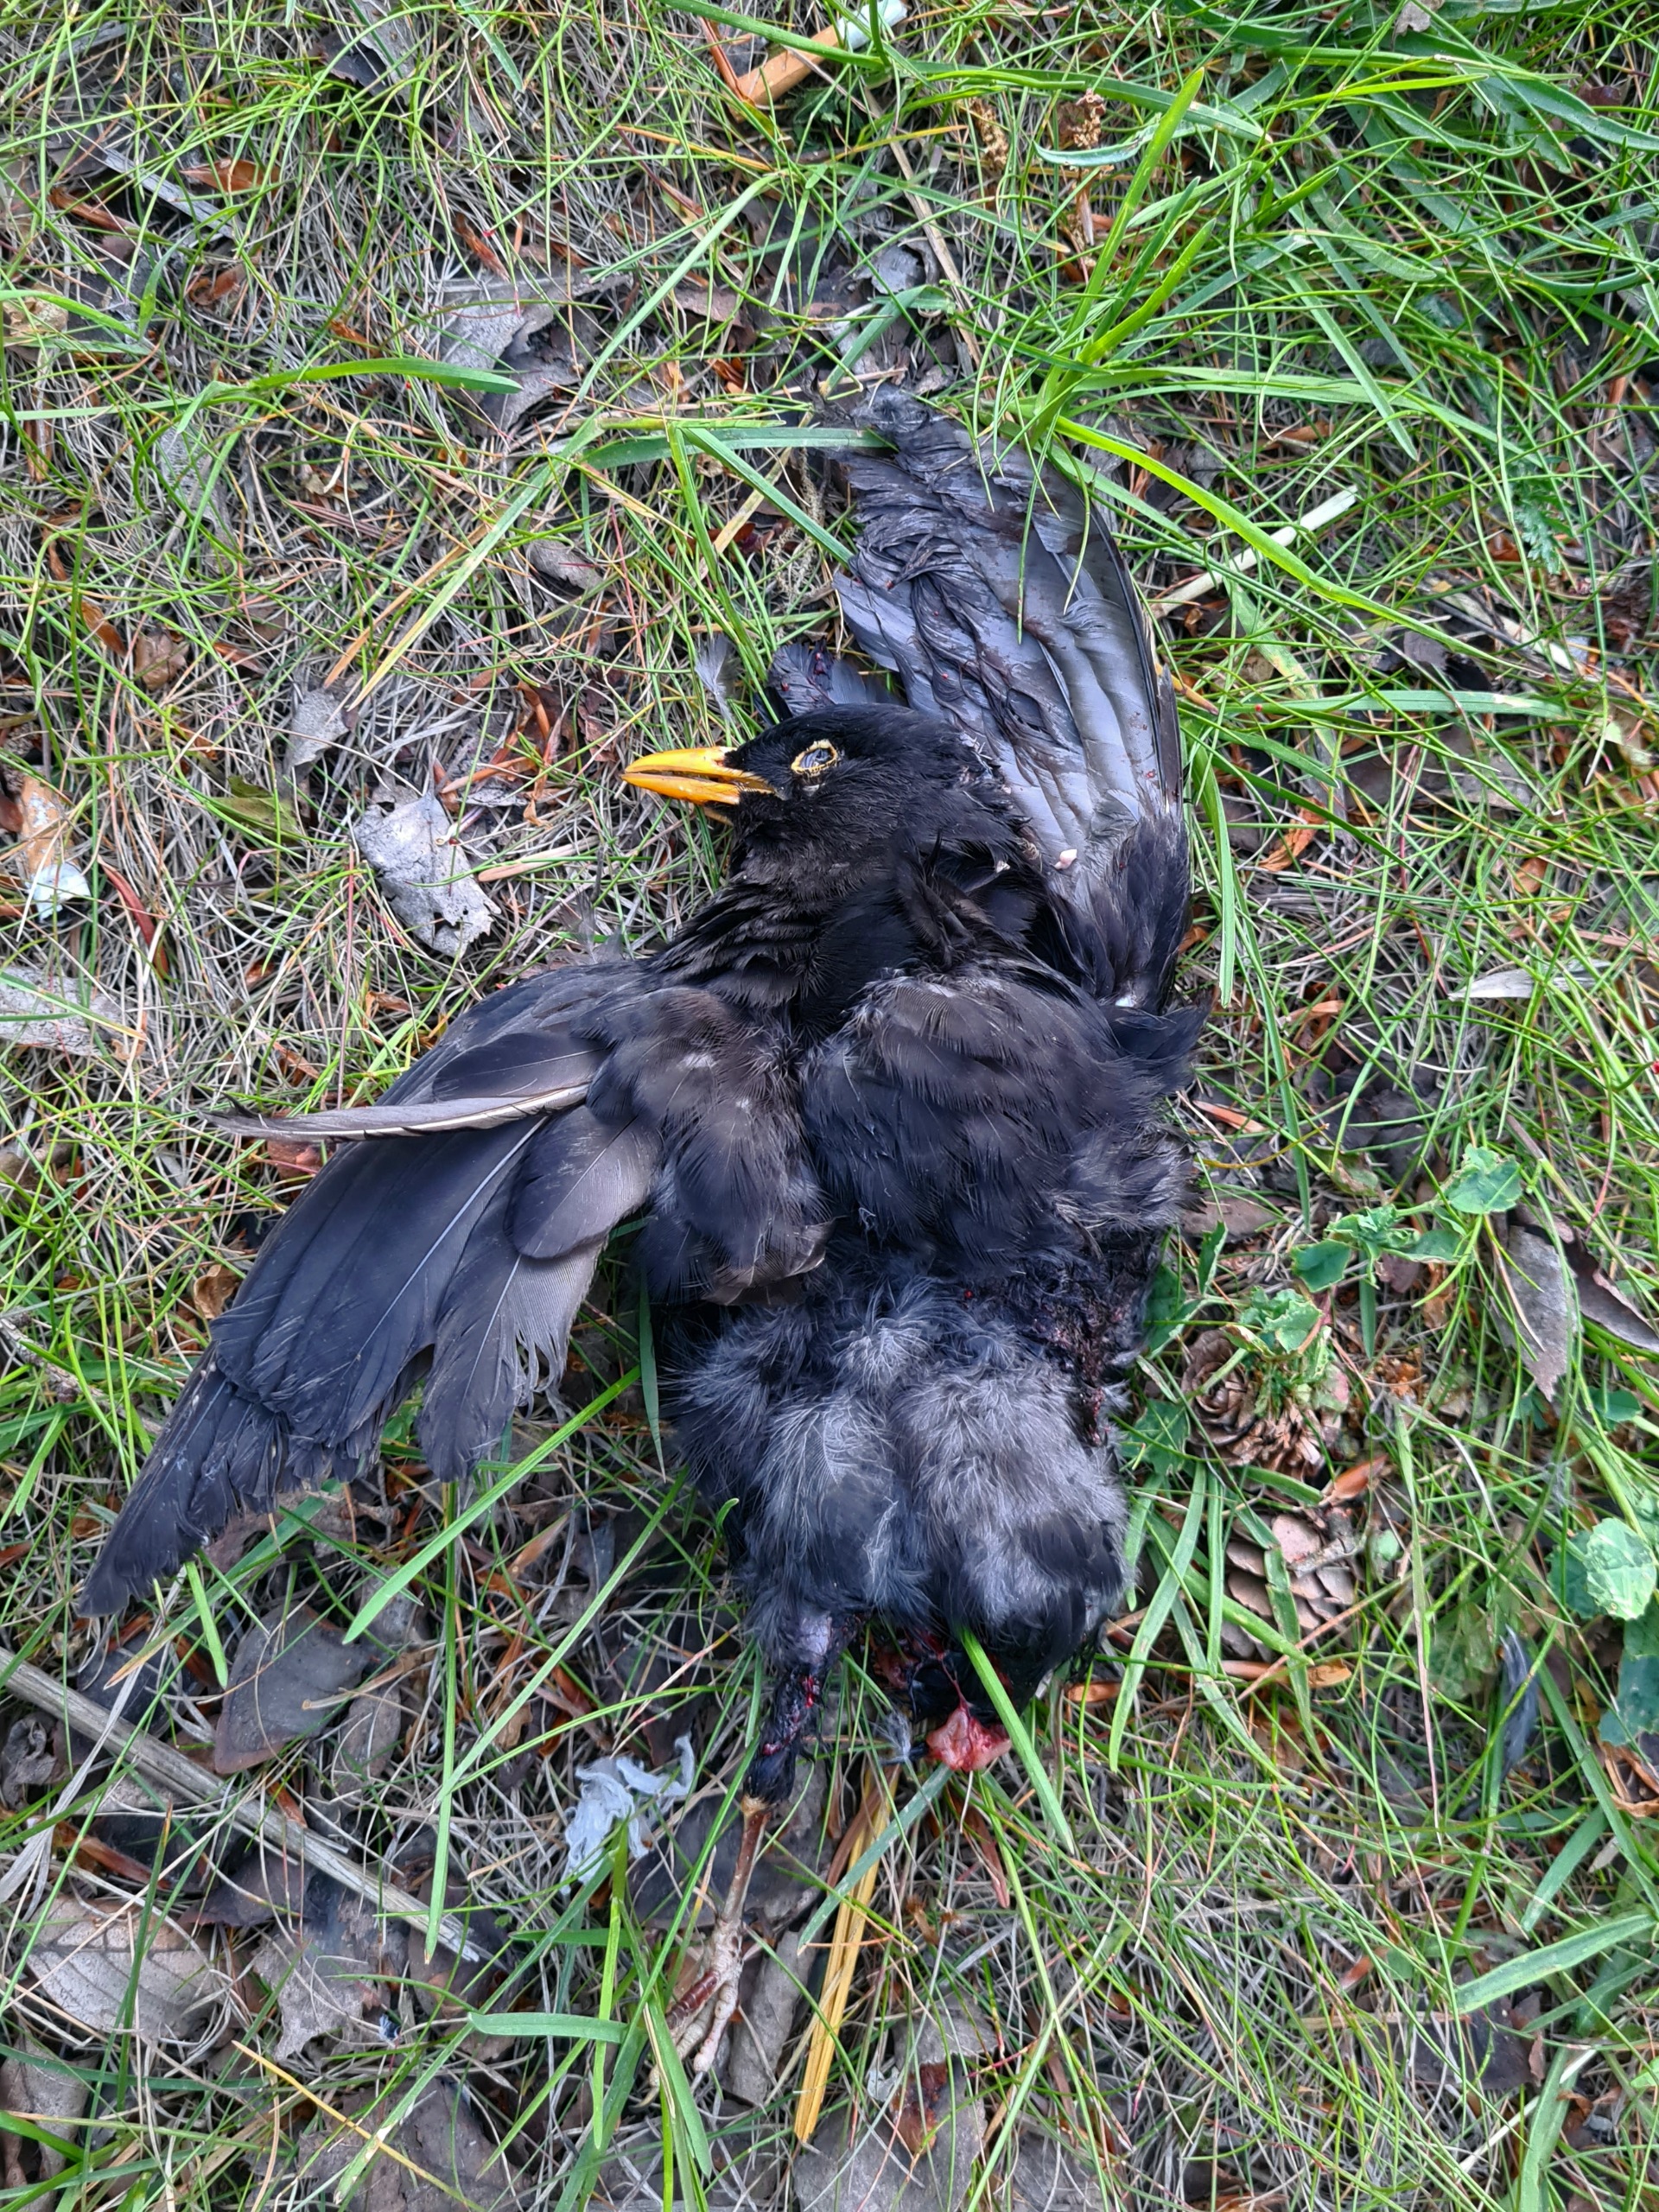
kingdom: Animalia
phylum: Chordata
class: Aves
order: Passeriformes
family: Turdidae
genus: Turdus
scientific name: Turdus merula
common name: Solsort
